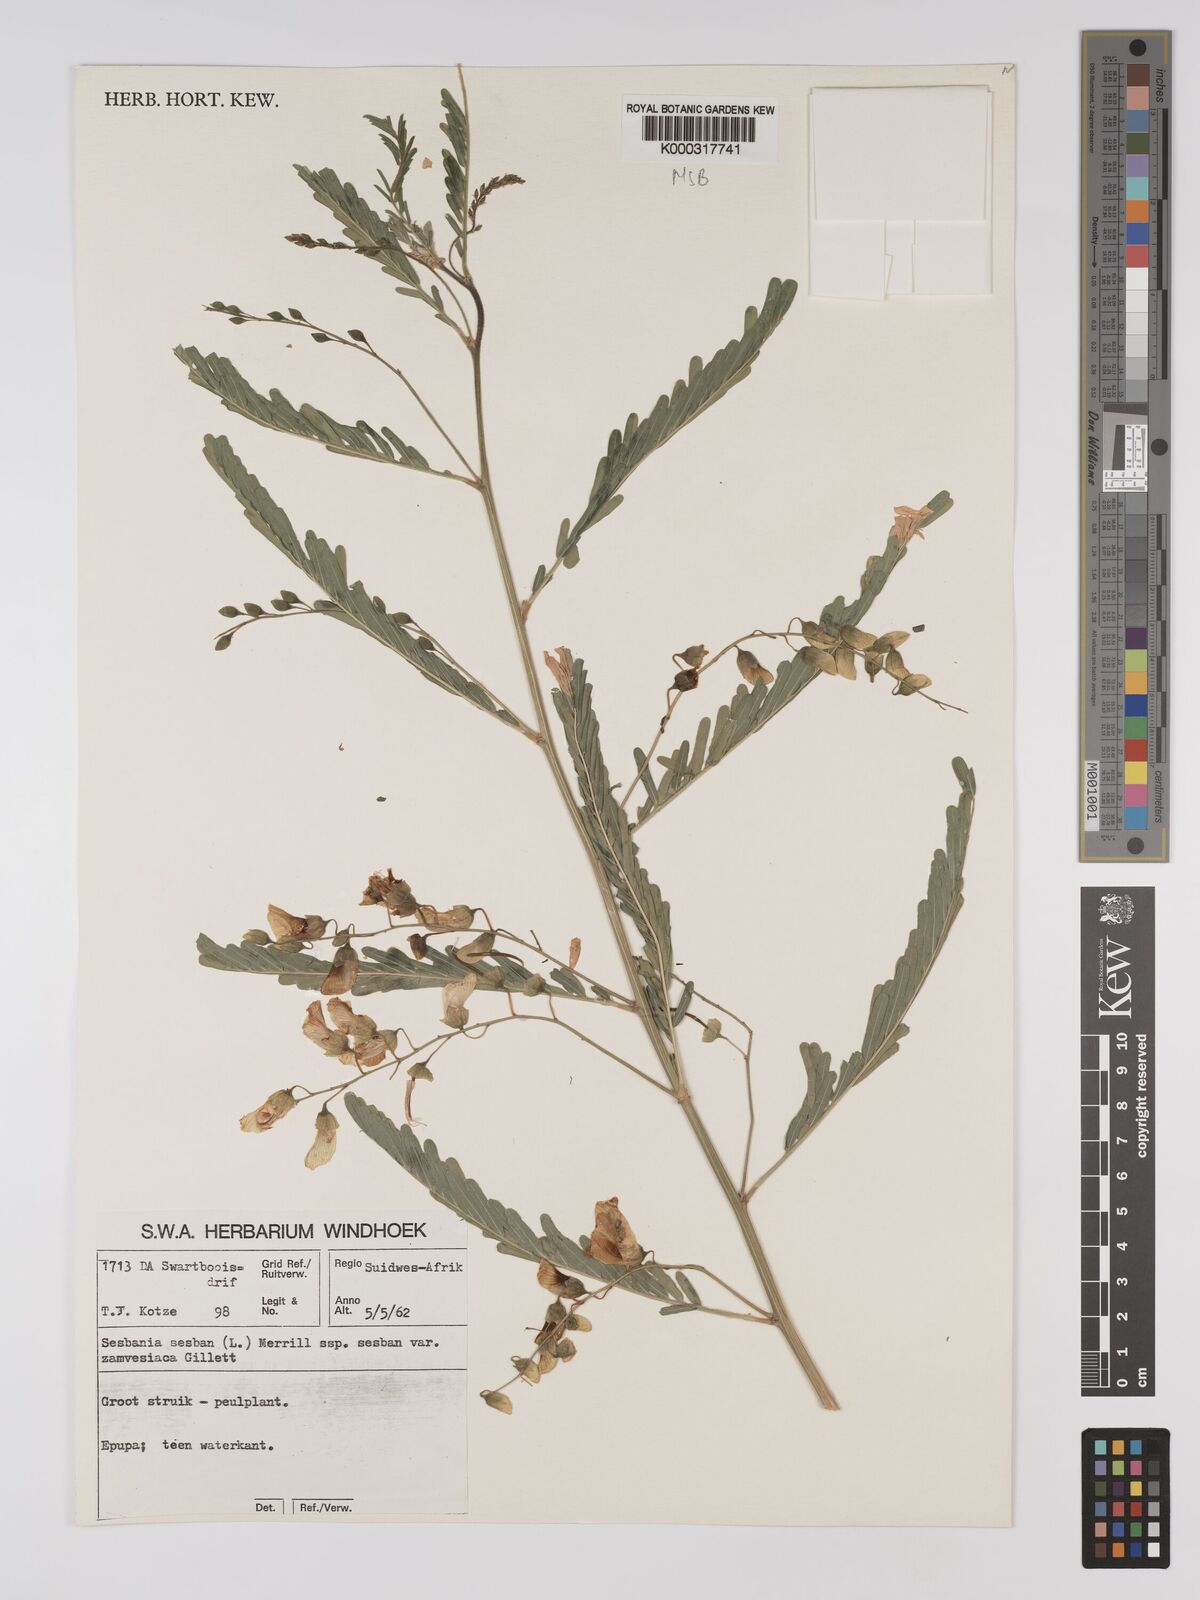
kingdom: Plantae
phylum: Tracheophyta
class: Magnoliopsida
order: Fabales
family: Fabaceae
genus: Sesbania
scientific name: Sesbania sesban
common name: Egyptian sesban
